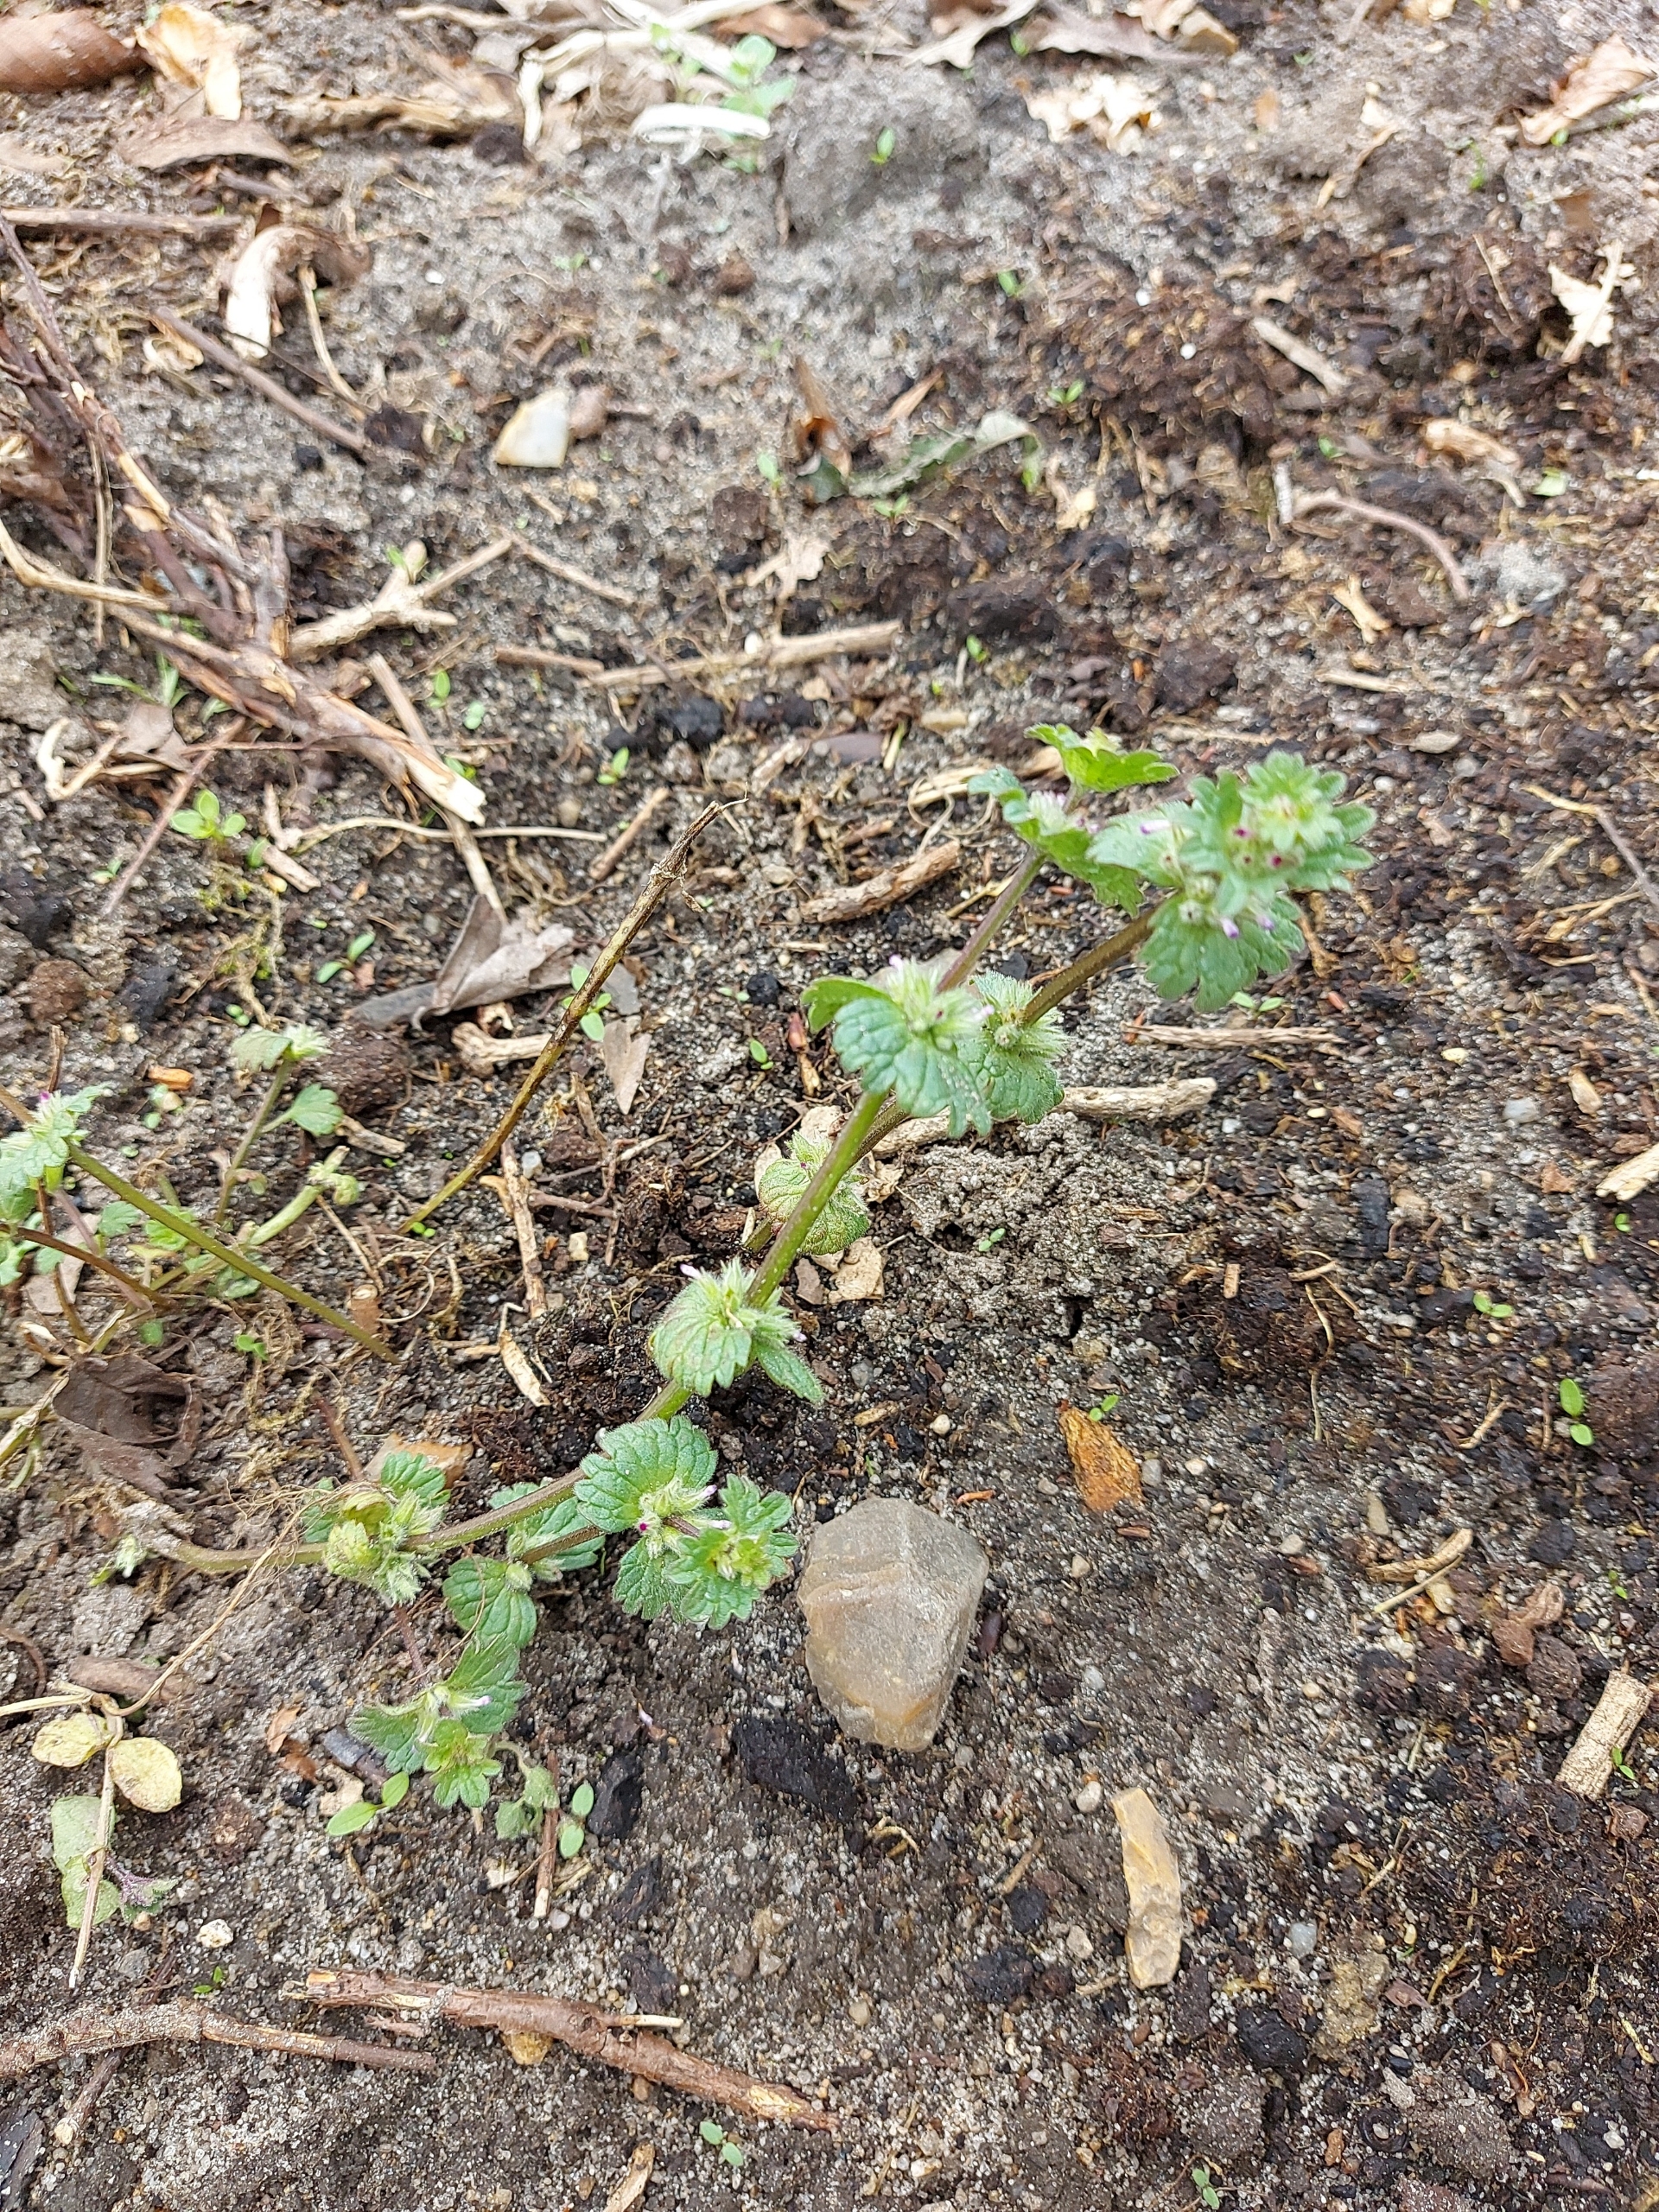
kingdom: Plantae
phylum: Tracheophyta
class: Magnoliopsida
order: Lamiales
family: Lamiaceae
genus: Lamium
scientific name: Lamium amplexicaule
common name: Liden tvetand
